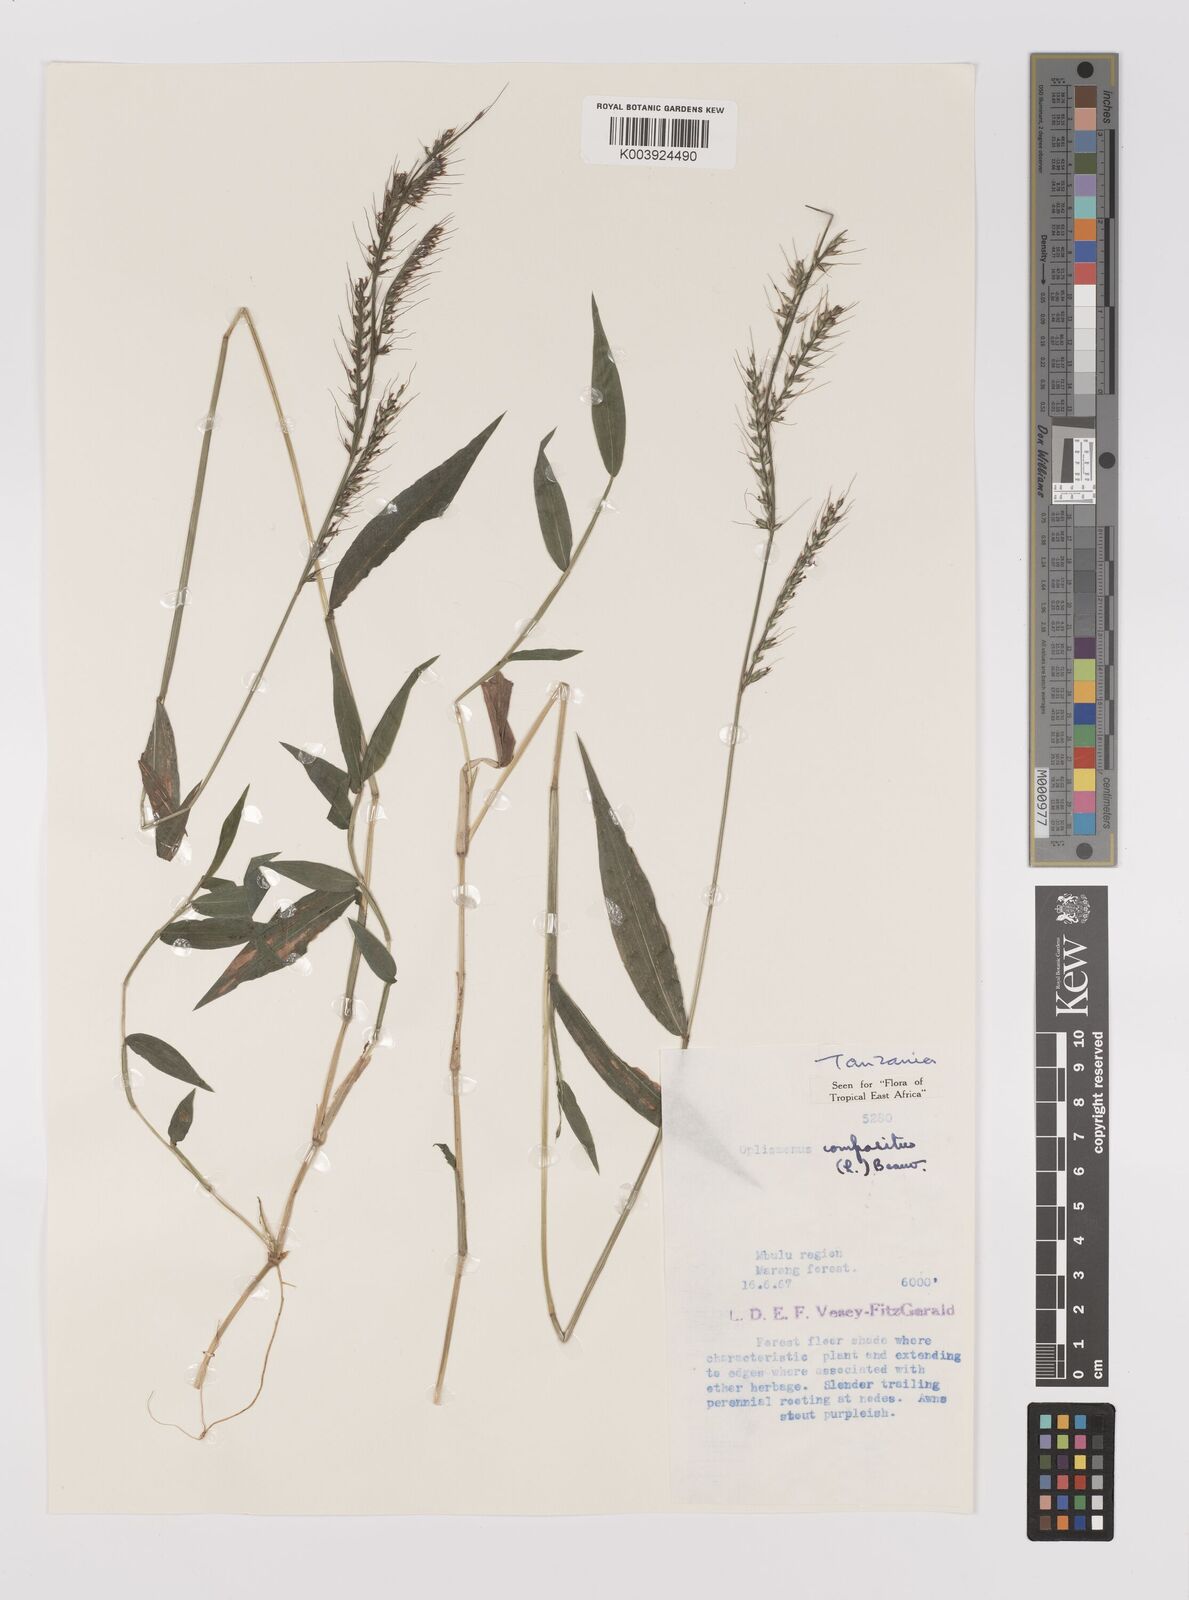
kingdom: Plantae
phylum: Tracheophyta
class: Liliopsida
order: Poales
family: Poaceae
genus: Oplismenus
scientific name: Oplismenus compositus
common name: Running mountain grass
